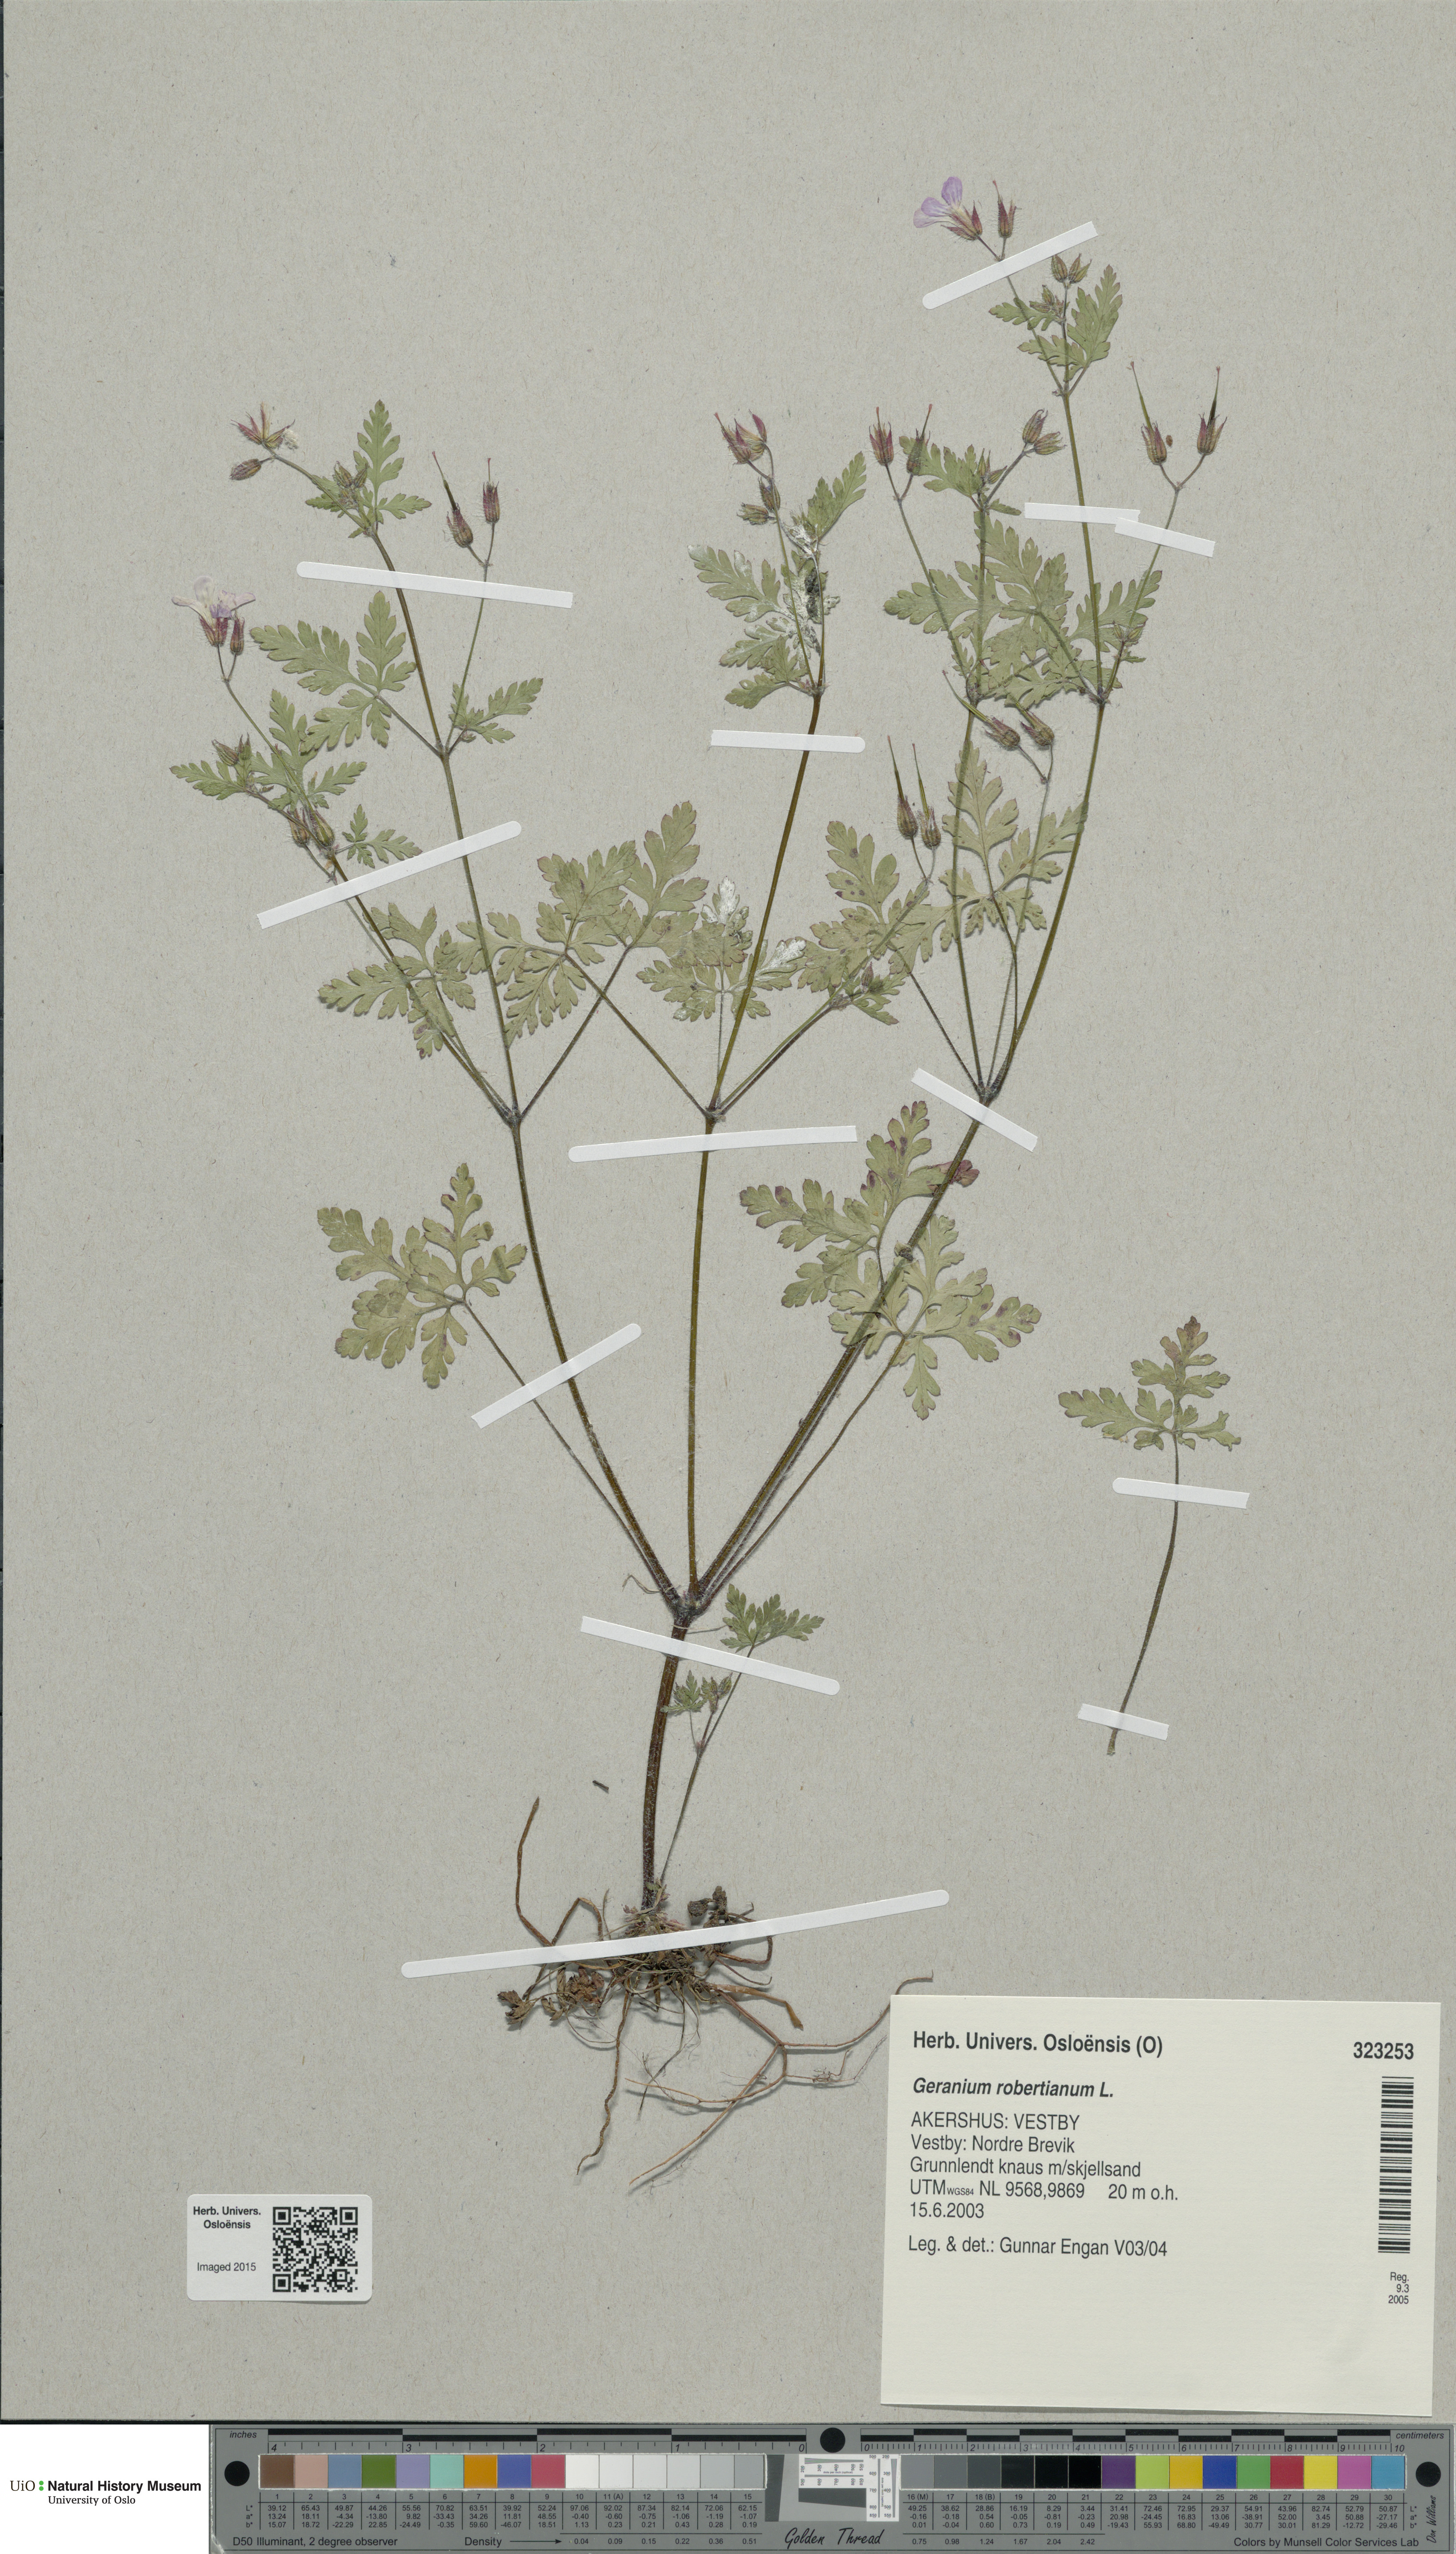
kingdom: Plantae
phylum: Tracheophyta
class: Magnoliopsida
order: Geraniales
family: Geraniaceae
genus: Geranium
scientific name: Geranium robertianum
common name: Herb-robert
